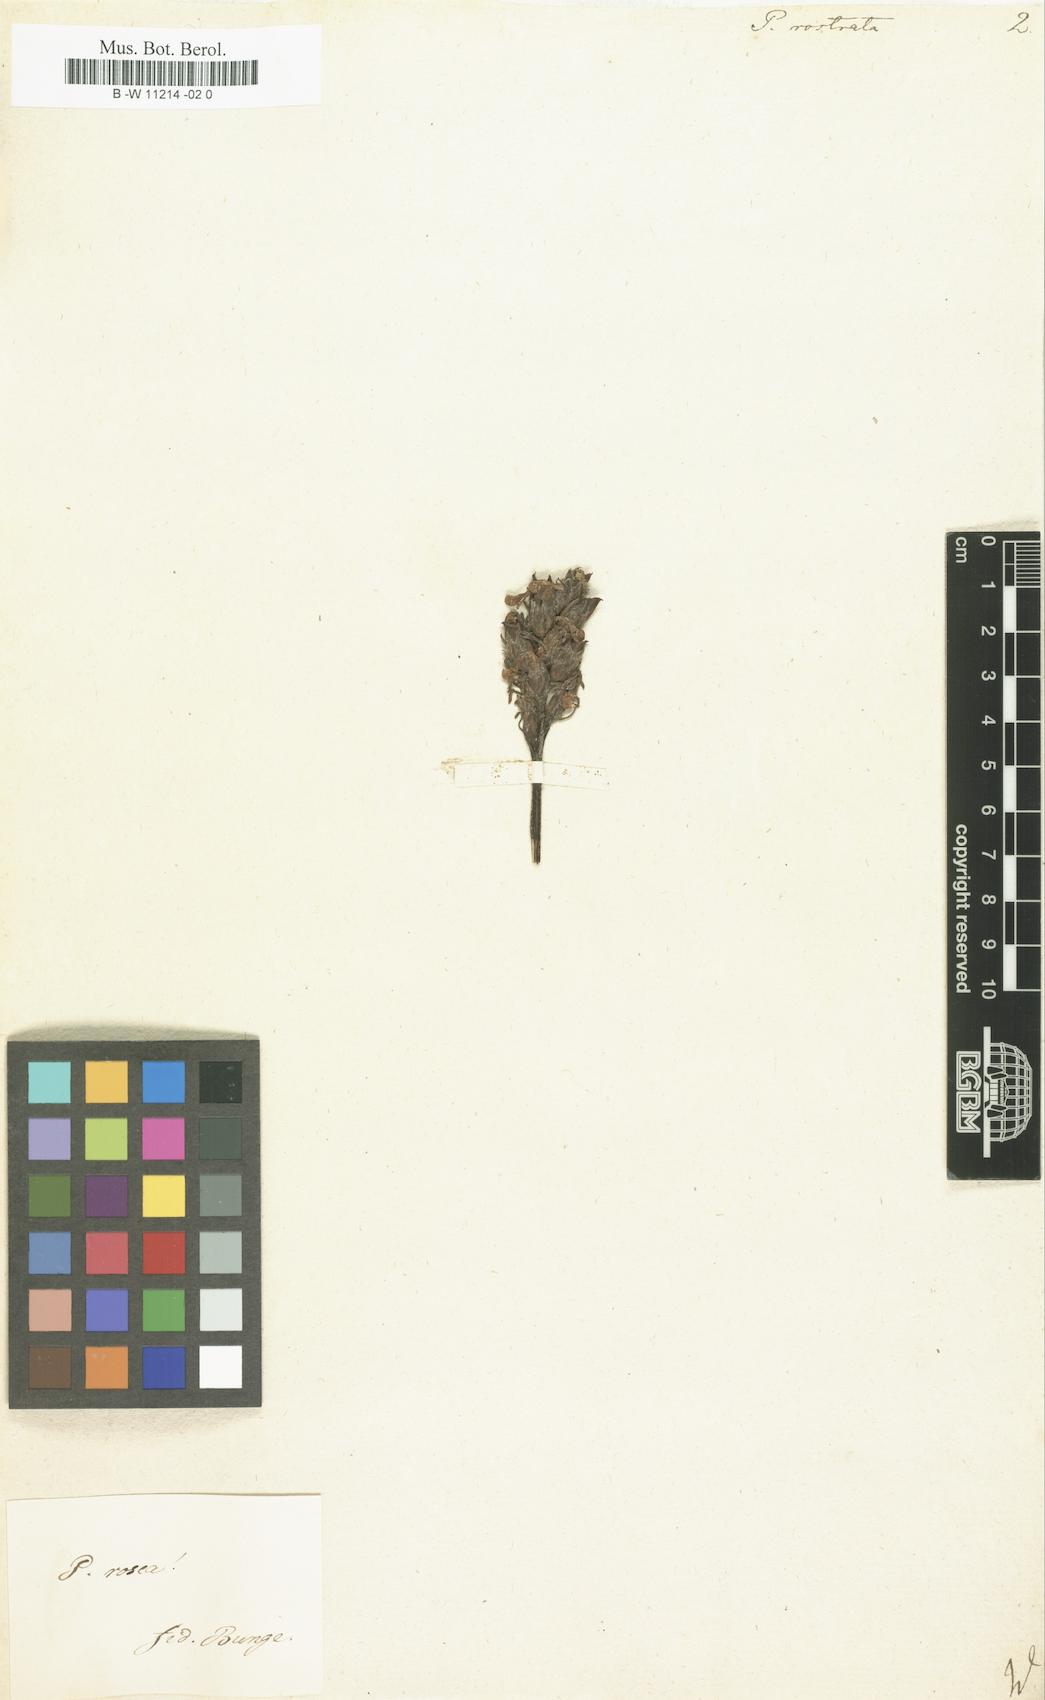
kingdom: Plantae
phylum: Tracheophyta
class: Magnoliopsida
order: Lamiales
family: Orobanchaceae
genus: Pedicularis
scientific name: Pedicularis
